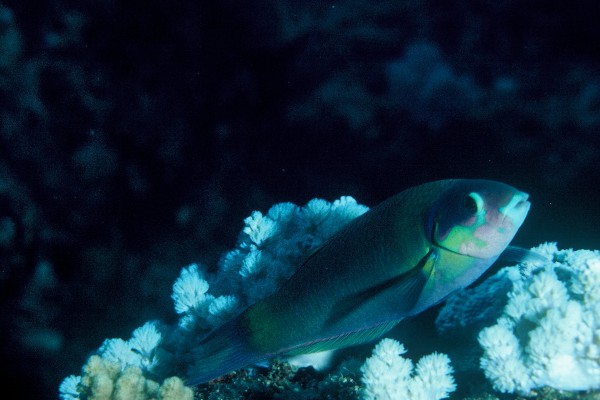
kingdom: Animalia
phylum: Chordata
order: Perciformes
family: Labridae
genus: Thalassoma
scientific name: Thalassoma genivittatum
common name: Red-cheek wrasse
